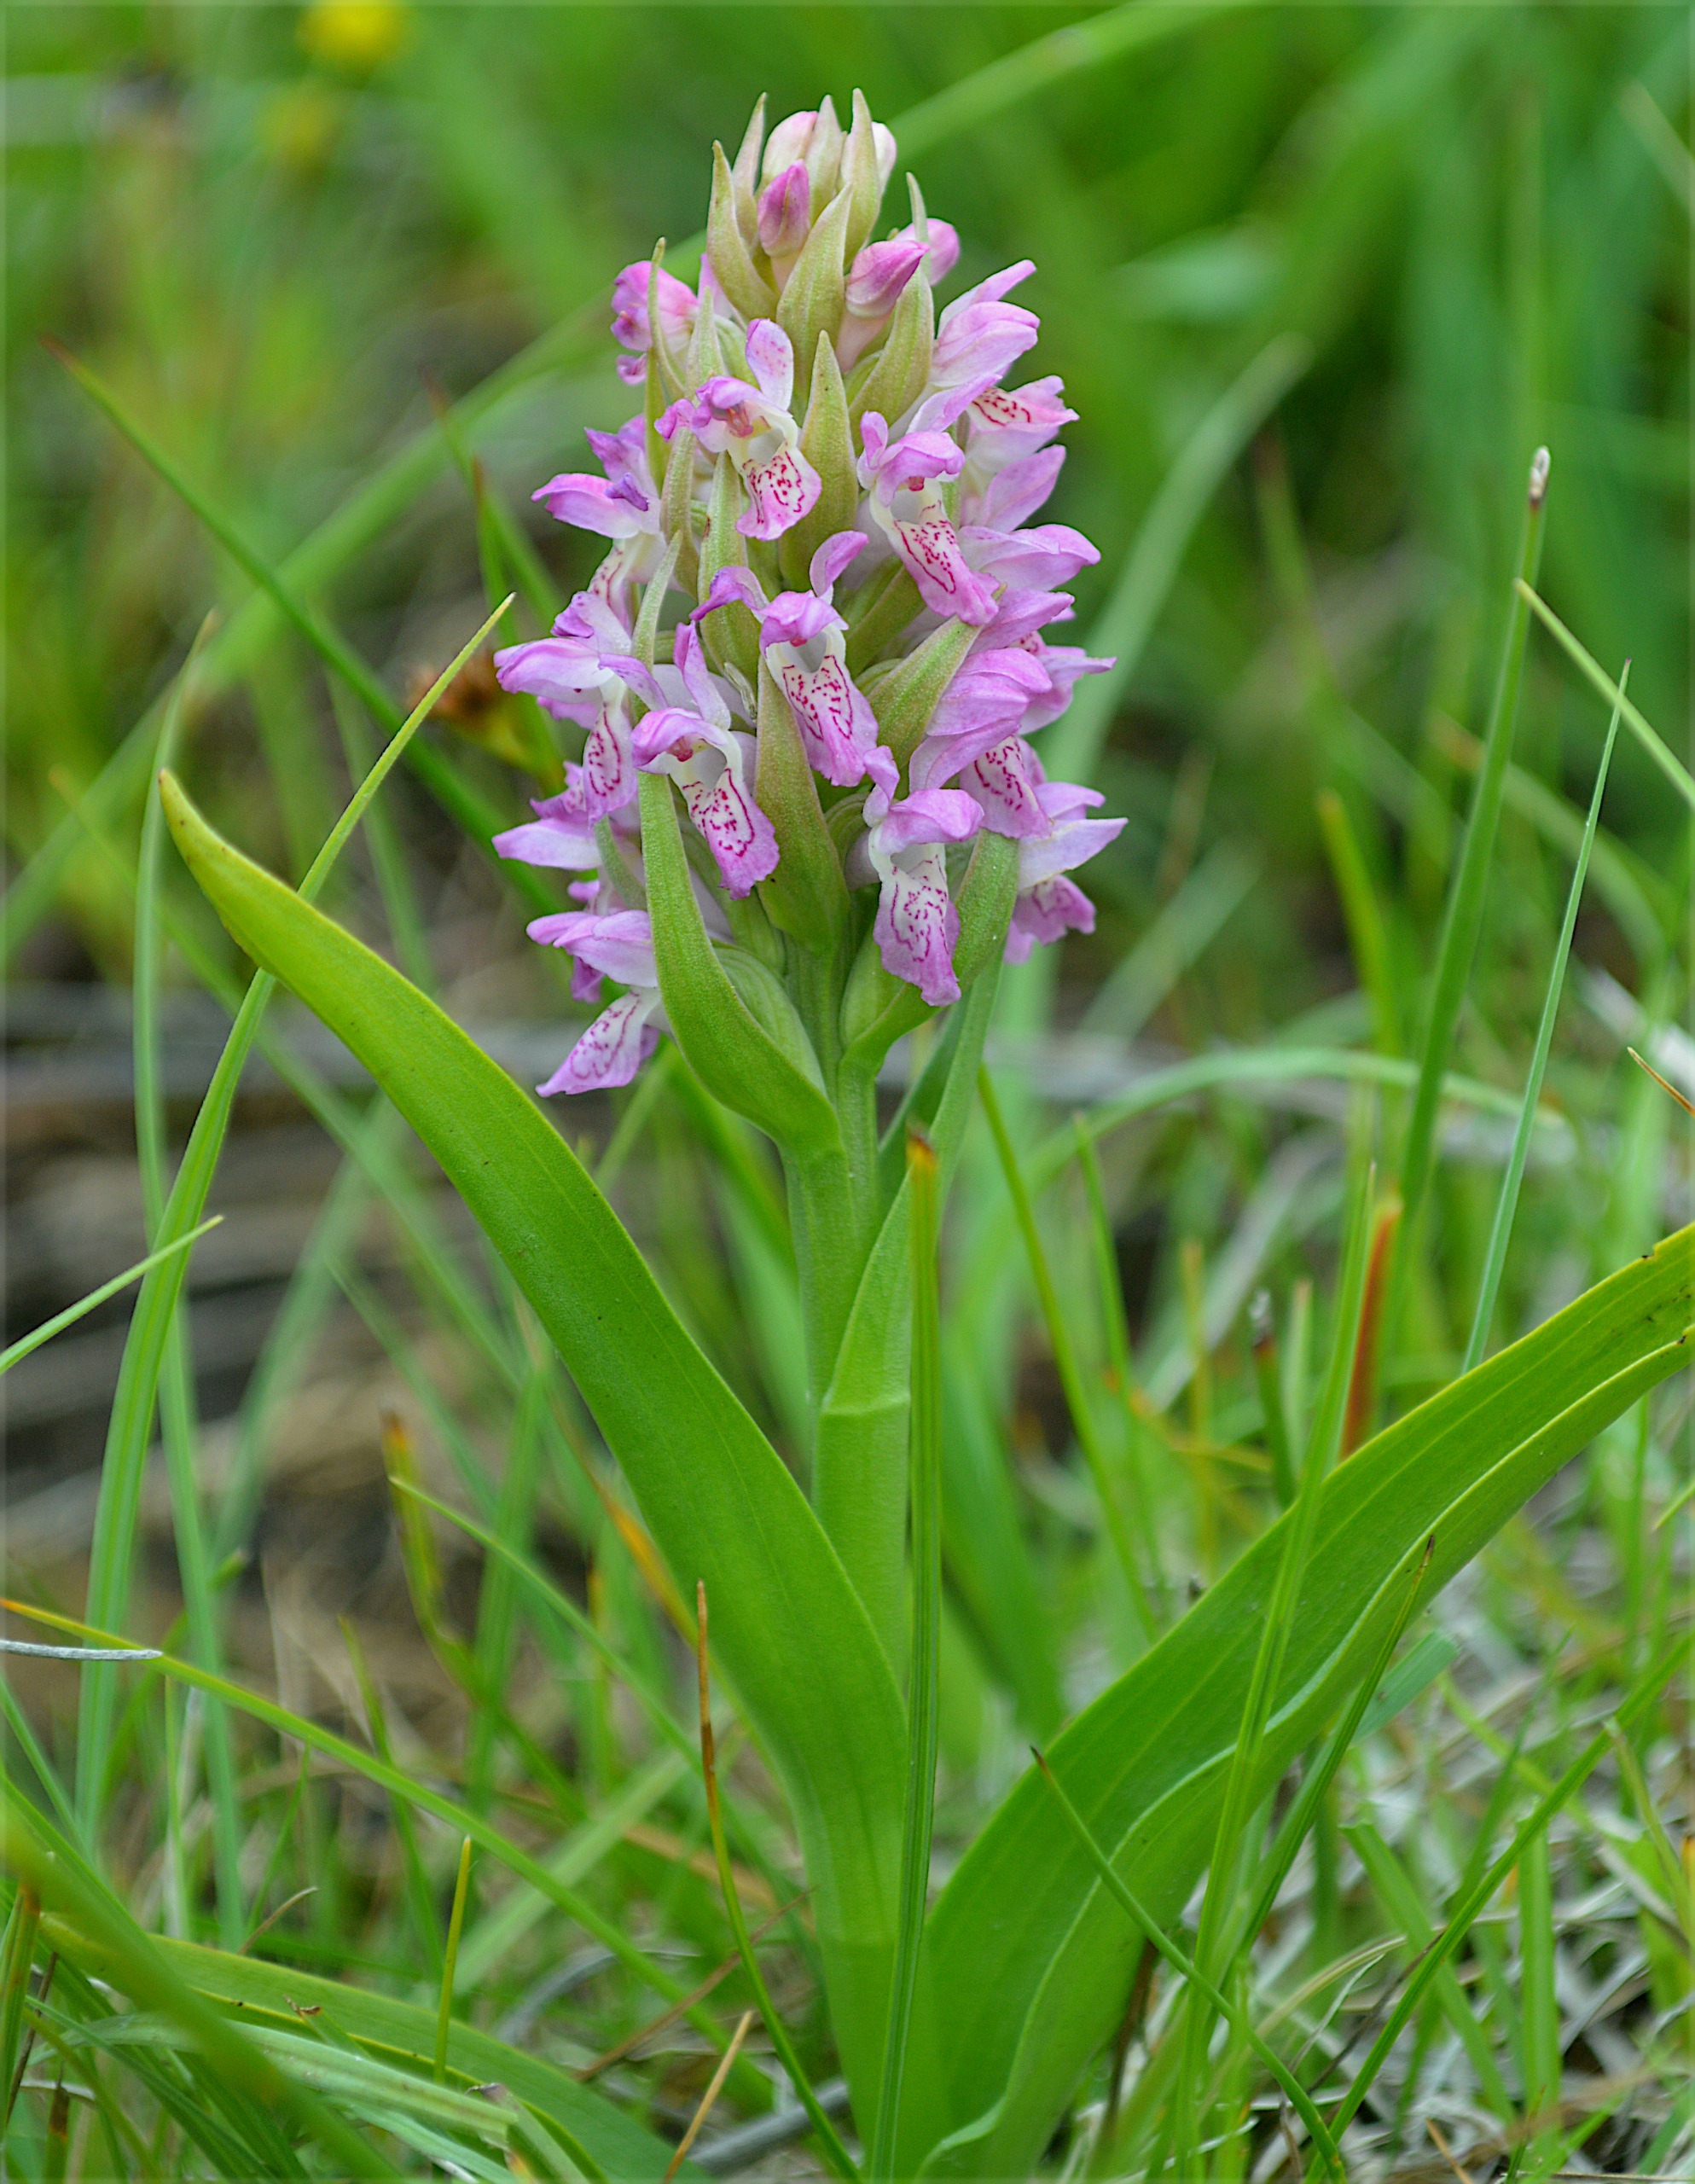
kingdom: Plantae
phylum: Tracheophyta
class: Liliopsida
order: Asparagales
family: Orchidaceae
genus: Dactylorhiza
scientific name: Dactylorhiza incarnata
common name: Klit-gøgeurt
